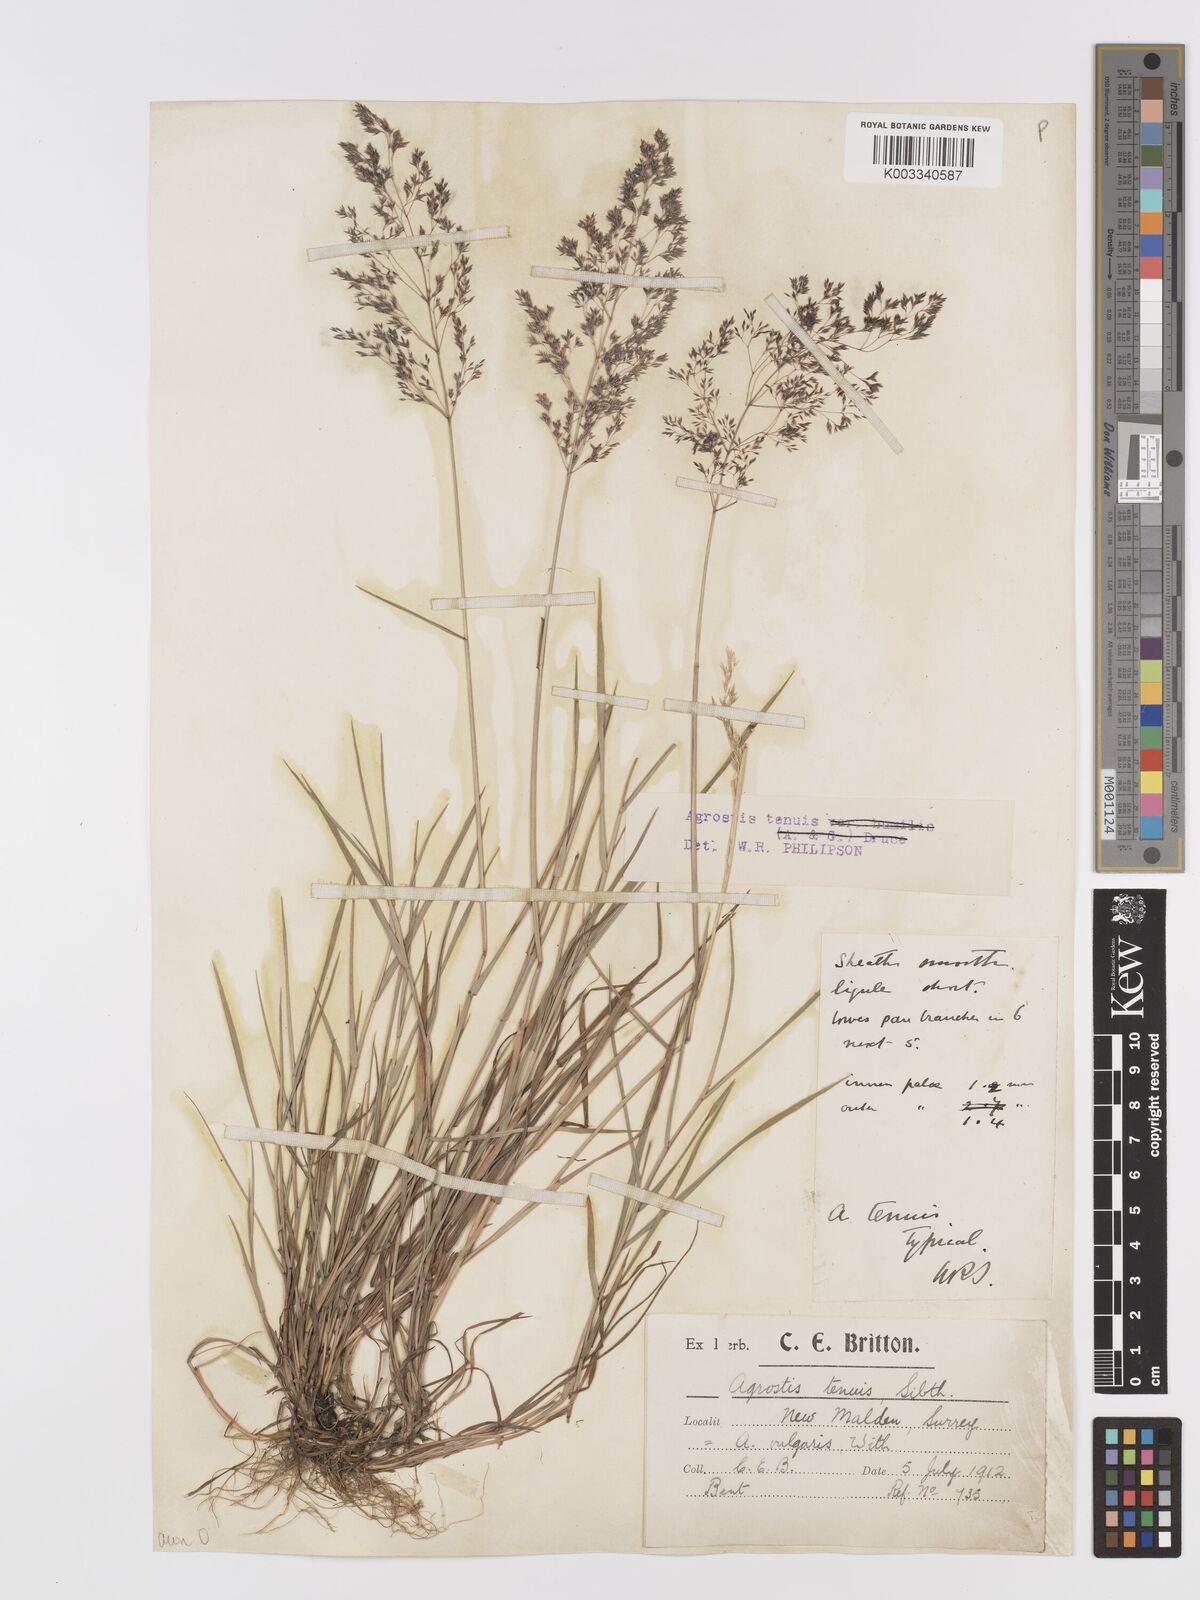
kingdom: Plantae
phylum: Tracheophyta
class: Liliopsida
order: Poales
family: Poaceae
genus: Agrostis
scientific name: Agrostis capillaris
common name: Colonial bentgrass
